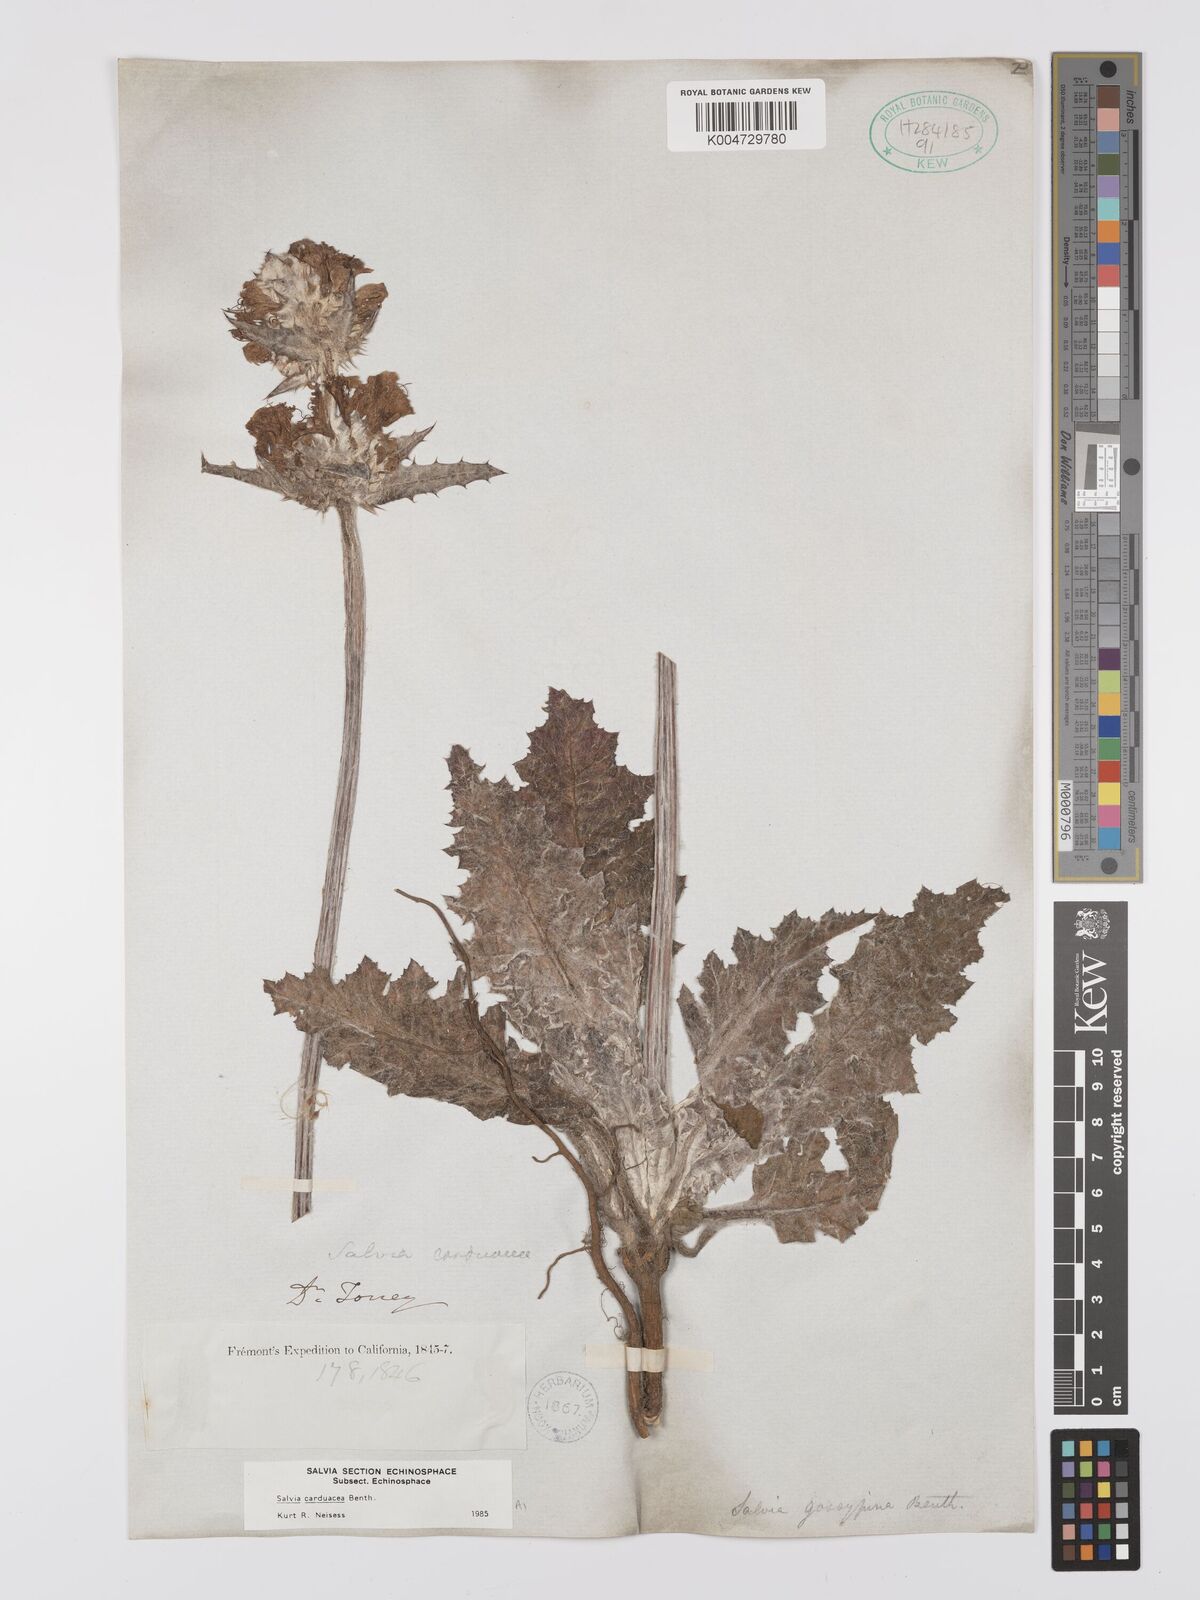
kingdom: Plantae
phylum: Tracheophyta
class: Magnoliopsida
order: Lamiales
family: Lamiaceae
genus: Salvia
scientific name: Salvia carduacea
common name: Thistle sage
